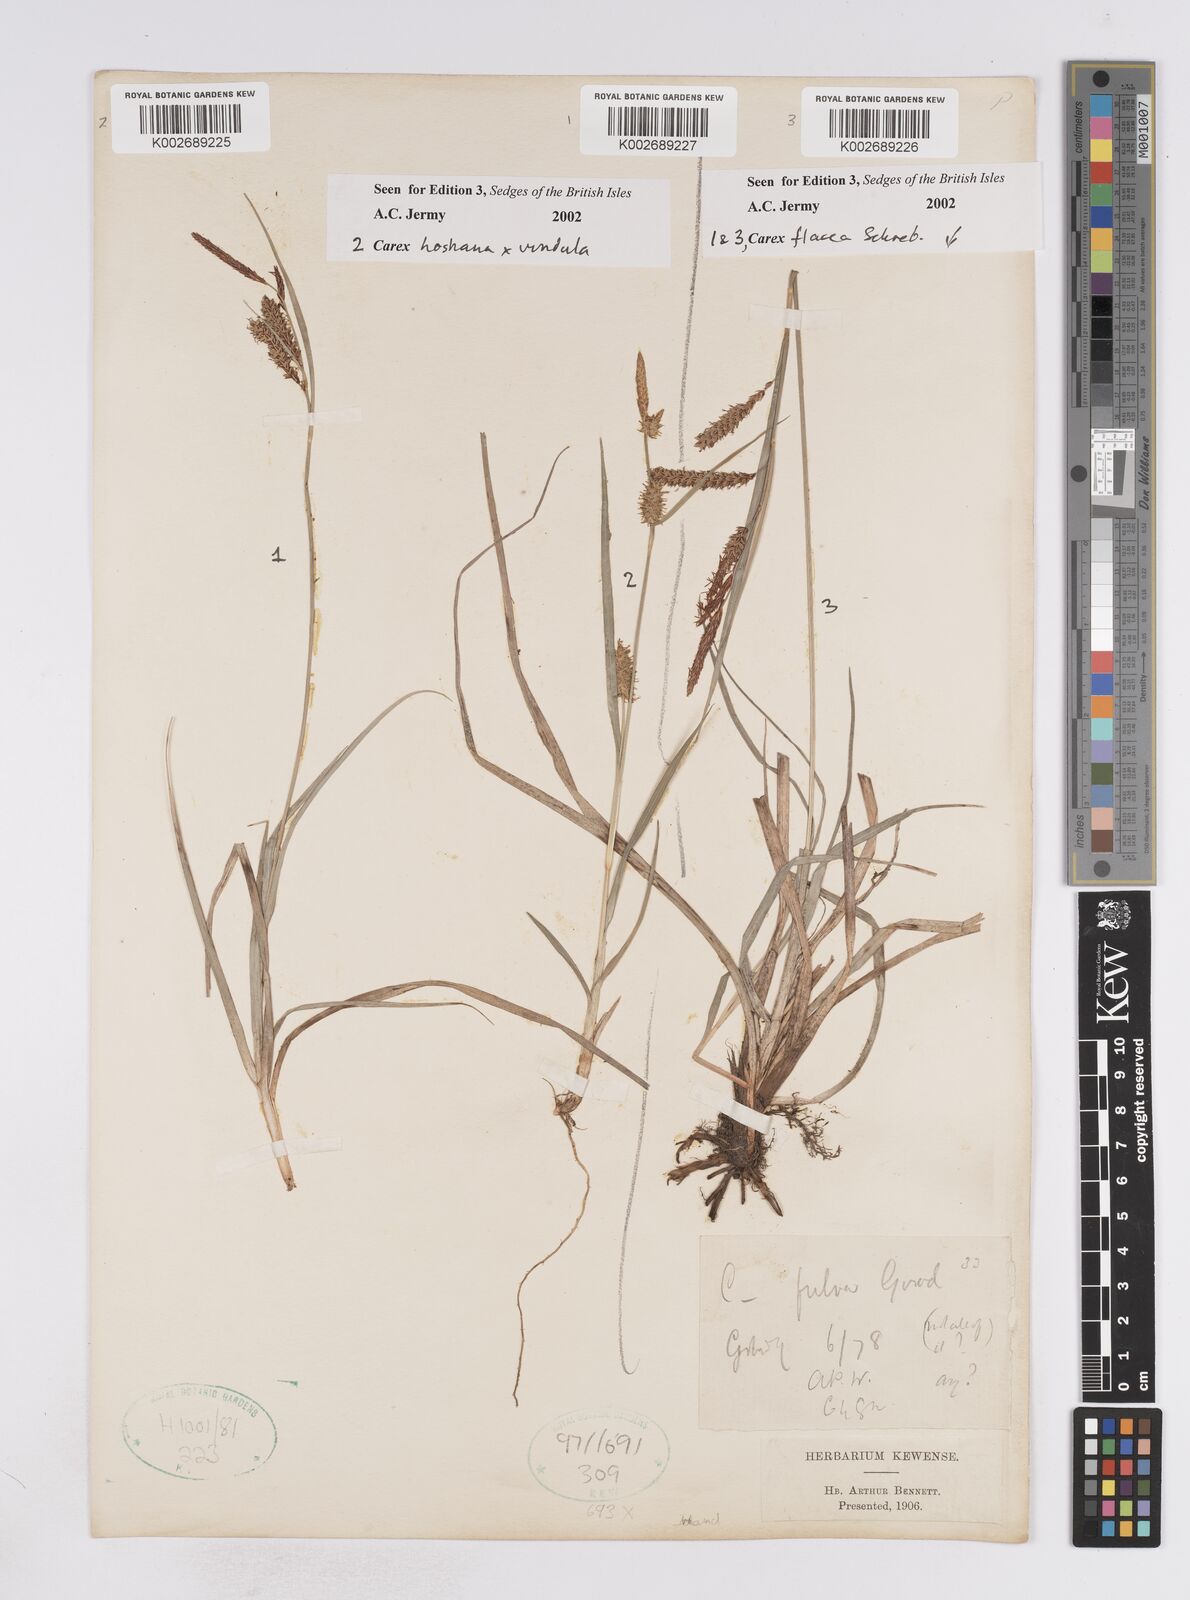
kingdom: Plantae
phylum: Tracheophyta
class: Liliopsida
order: Poales
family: Cyperaceae
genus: Carex
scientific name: Carex flacca
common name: Glaucous sedge
